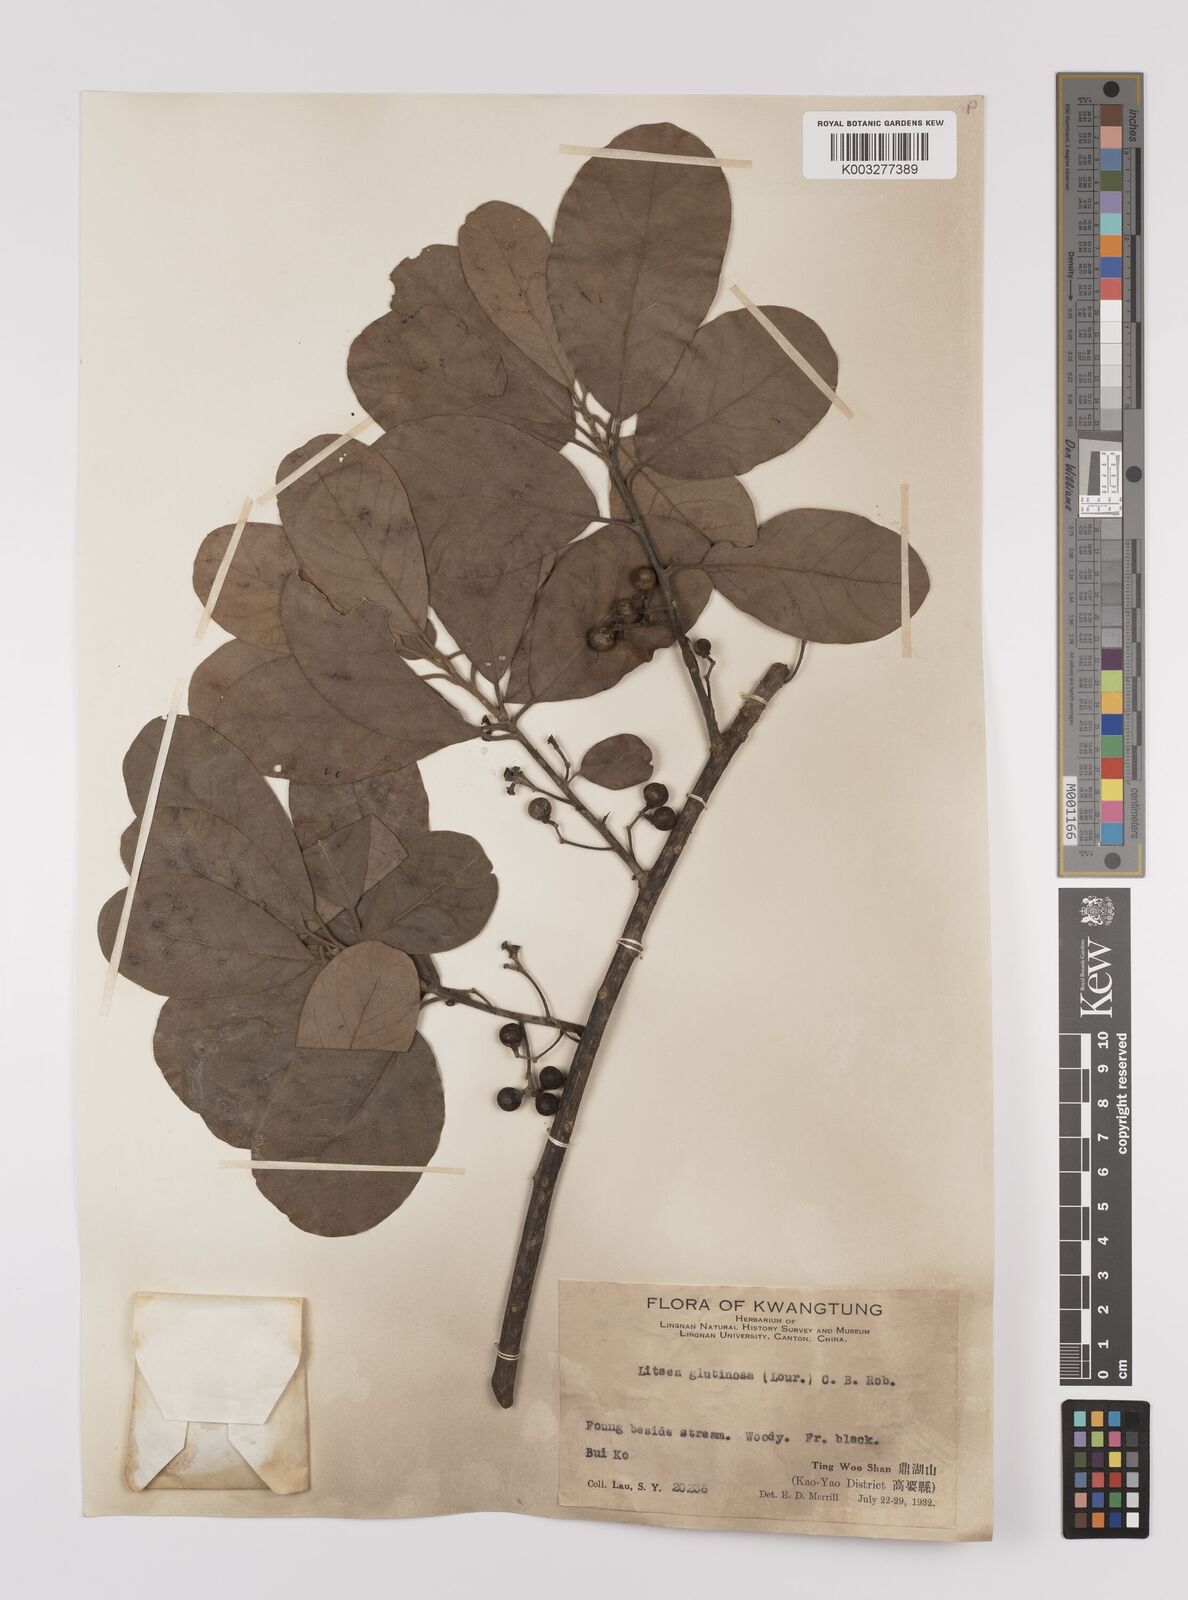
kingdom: Plantae
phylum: Tracheophyta
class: Magnoliopsida
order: Laurales
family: Lauraceae
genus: Litsea
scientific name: Litsea glutinosa
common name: Indian-laurel
